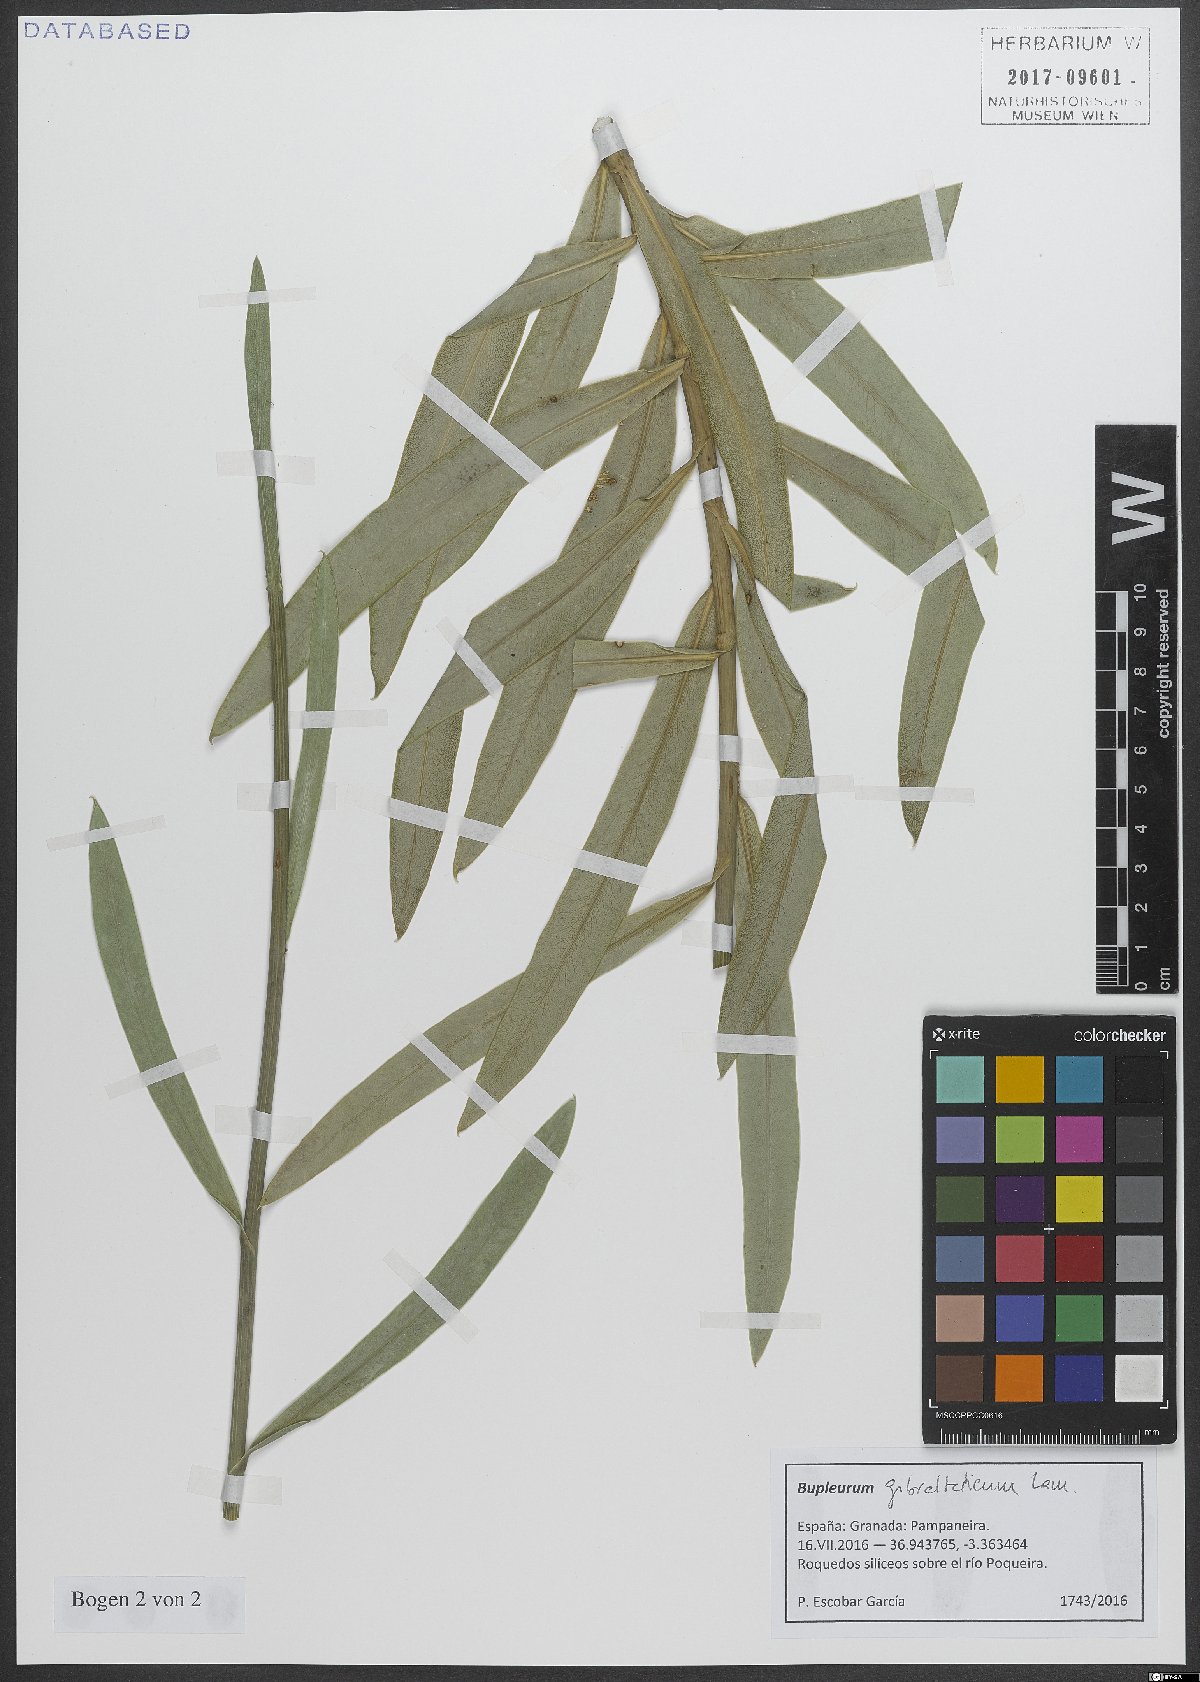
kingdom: Plantae
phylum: Tracheophyta
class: Magnoliopsida
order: Apiales
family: Apiaceae
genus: Bupleurum
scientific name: Bupleurum gibraltaricum
